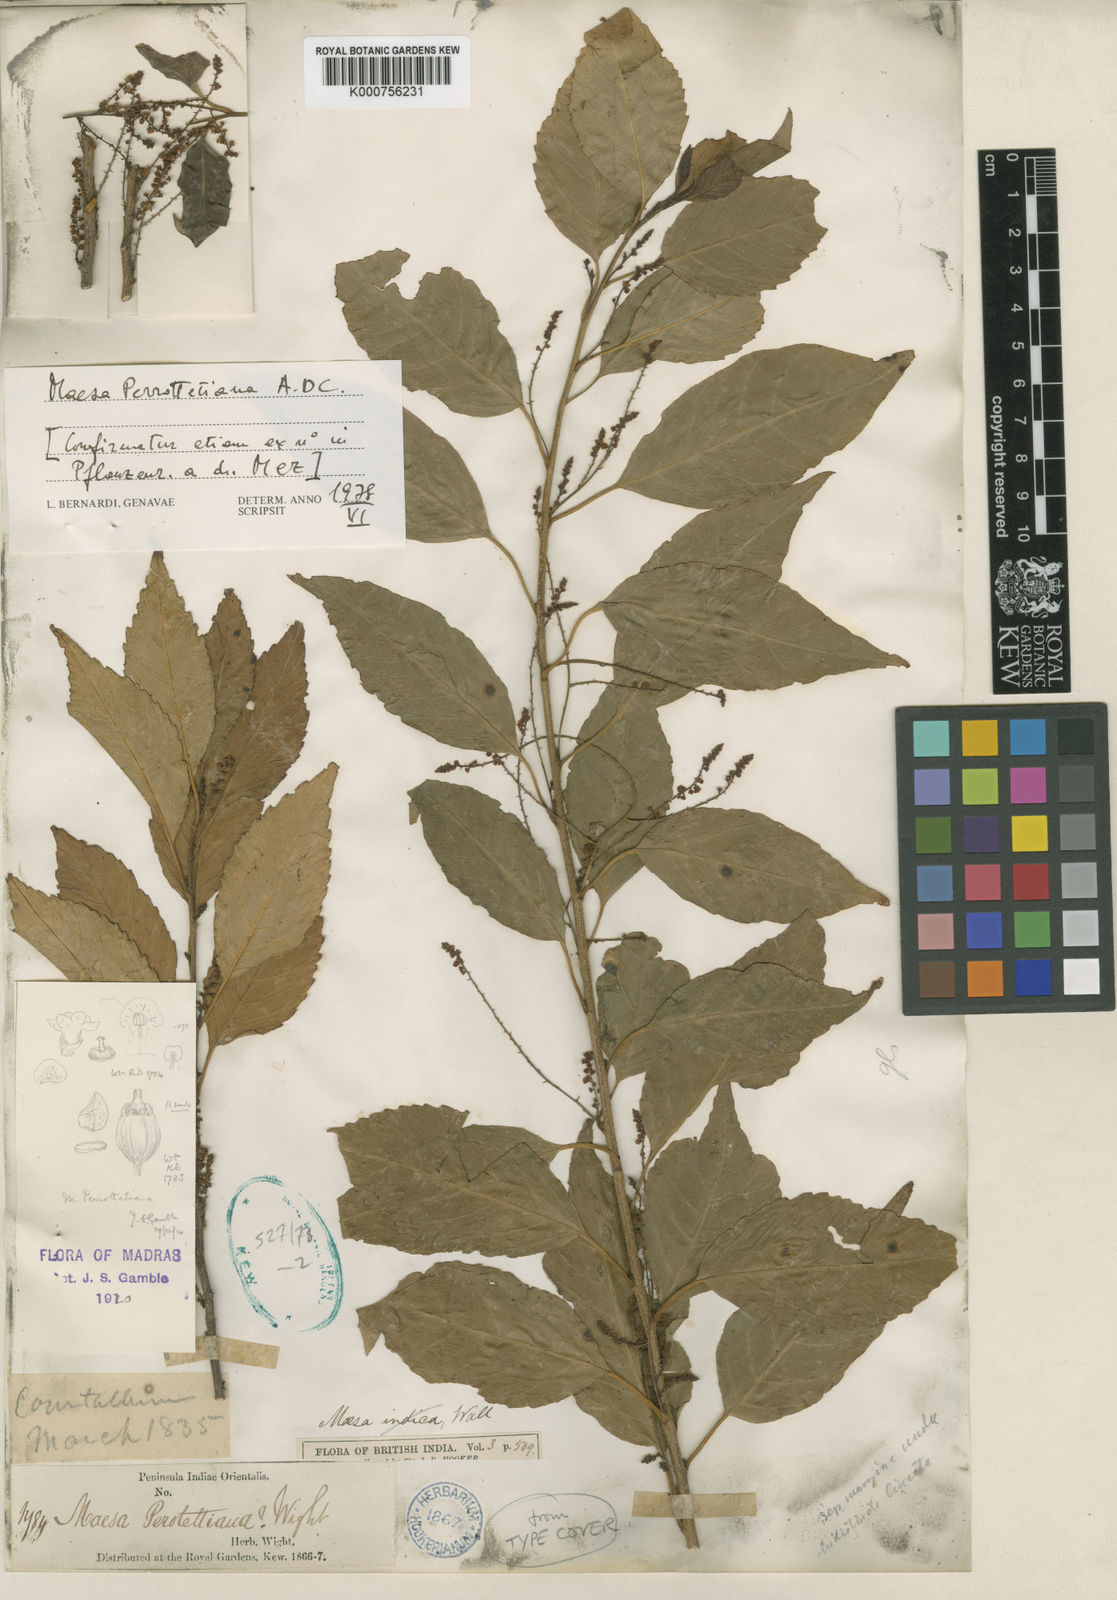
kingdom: Plantae
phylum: Tracheophyta
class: Magnoliopsida
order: Ericales
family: Primulaceae
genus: Maesa
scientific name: Maesa indica
